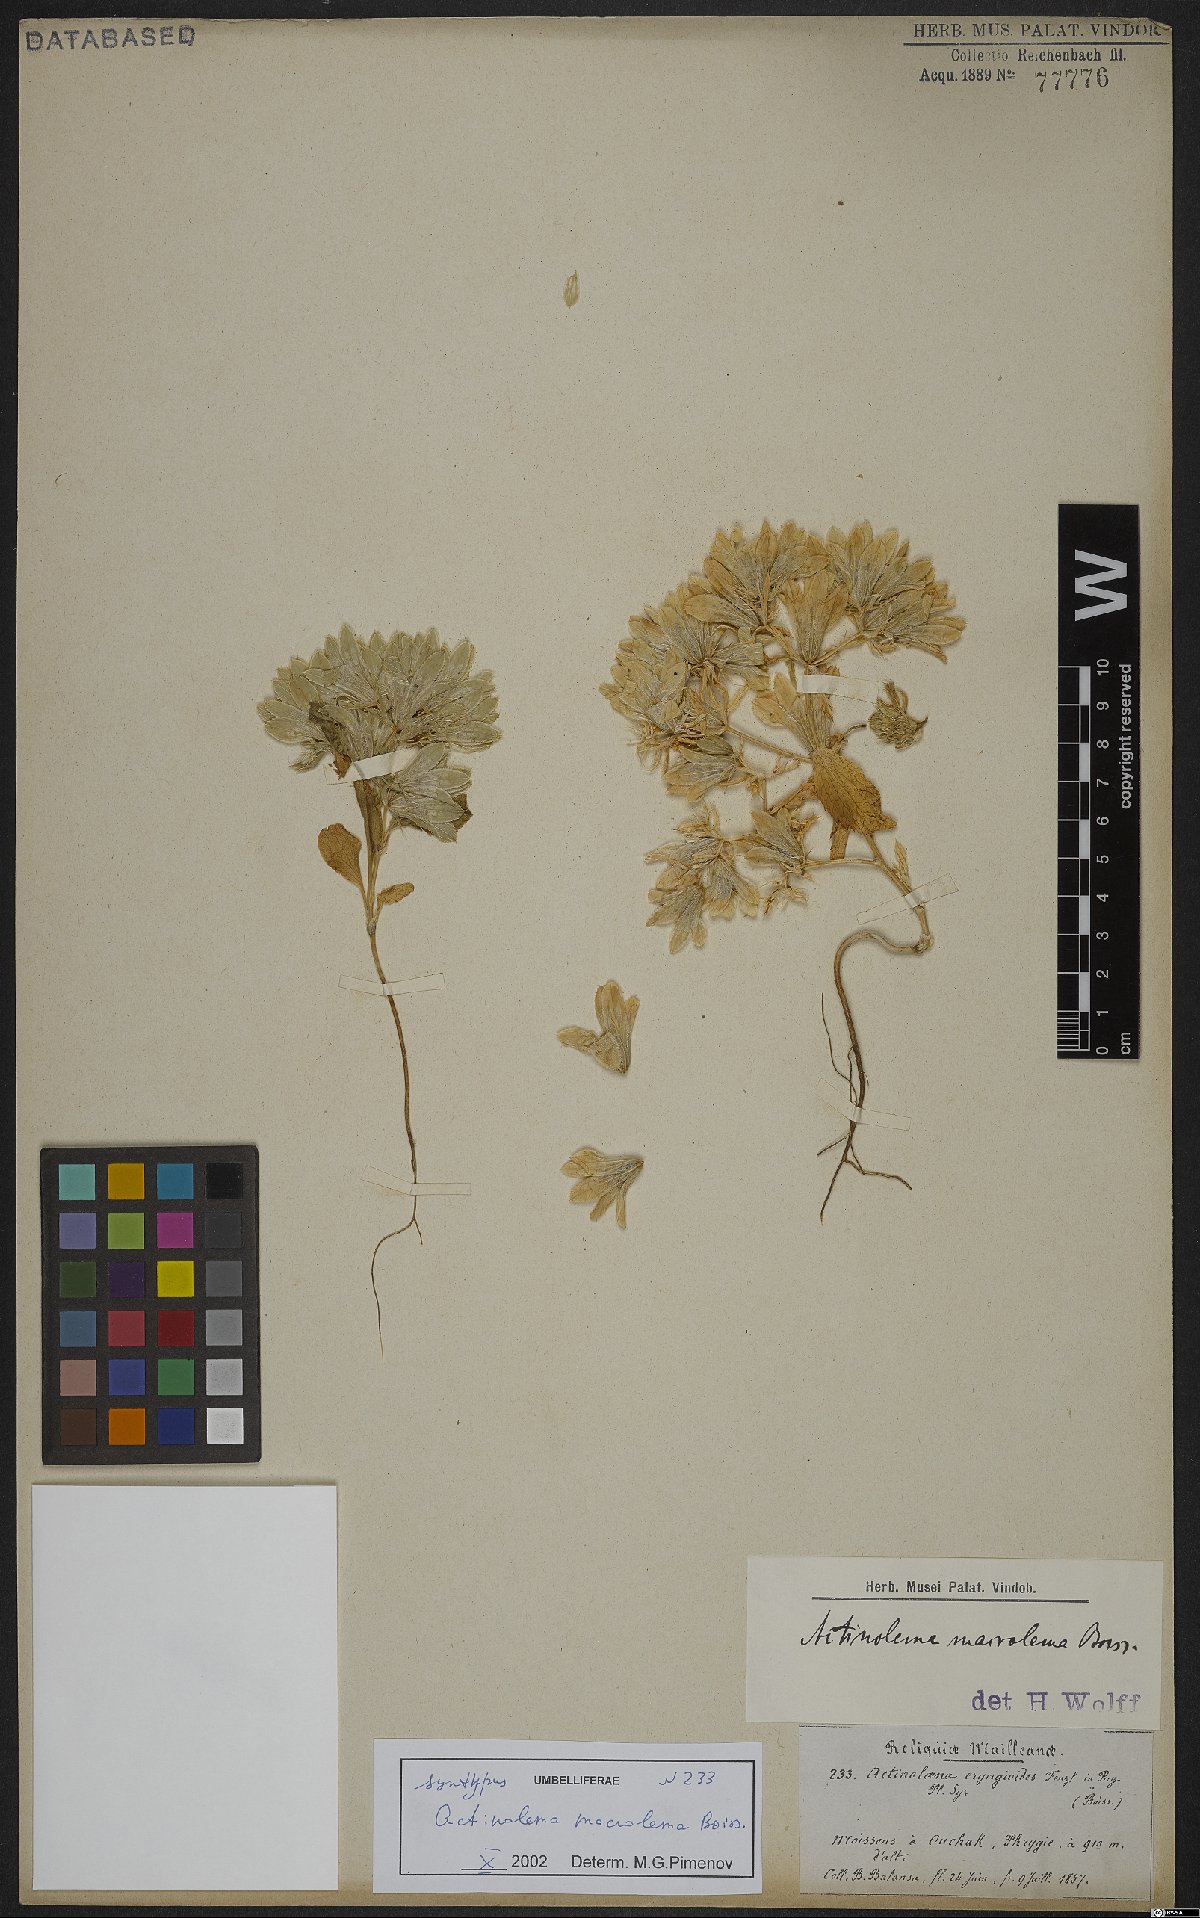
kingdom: Plantae
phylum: Tracheophyta
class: Magnoliopsida
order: Apiales
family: Apiaceae
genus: Actinolema
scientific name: Actinolema macrolema
